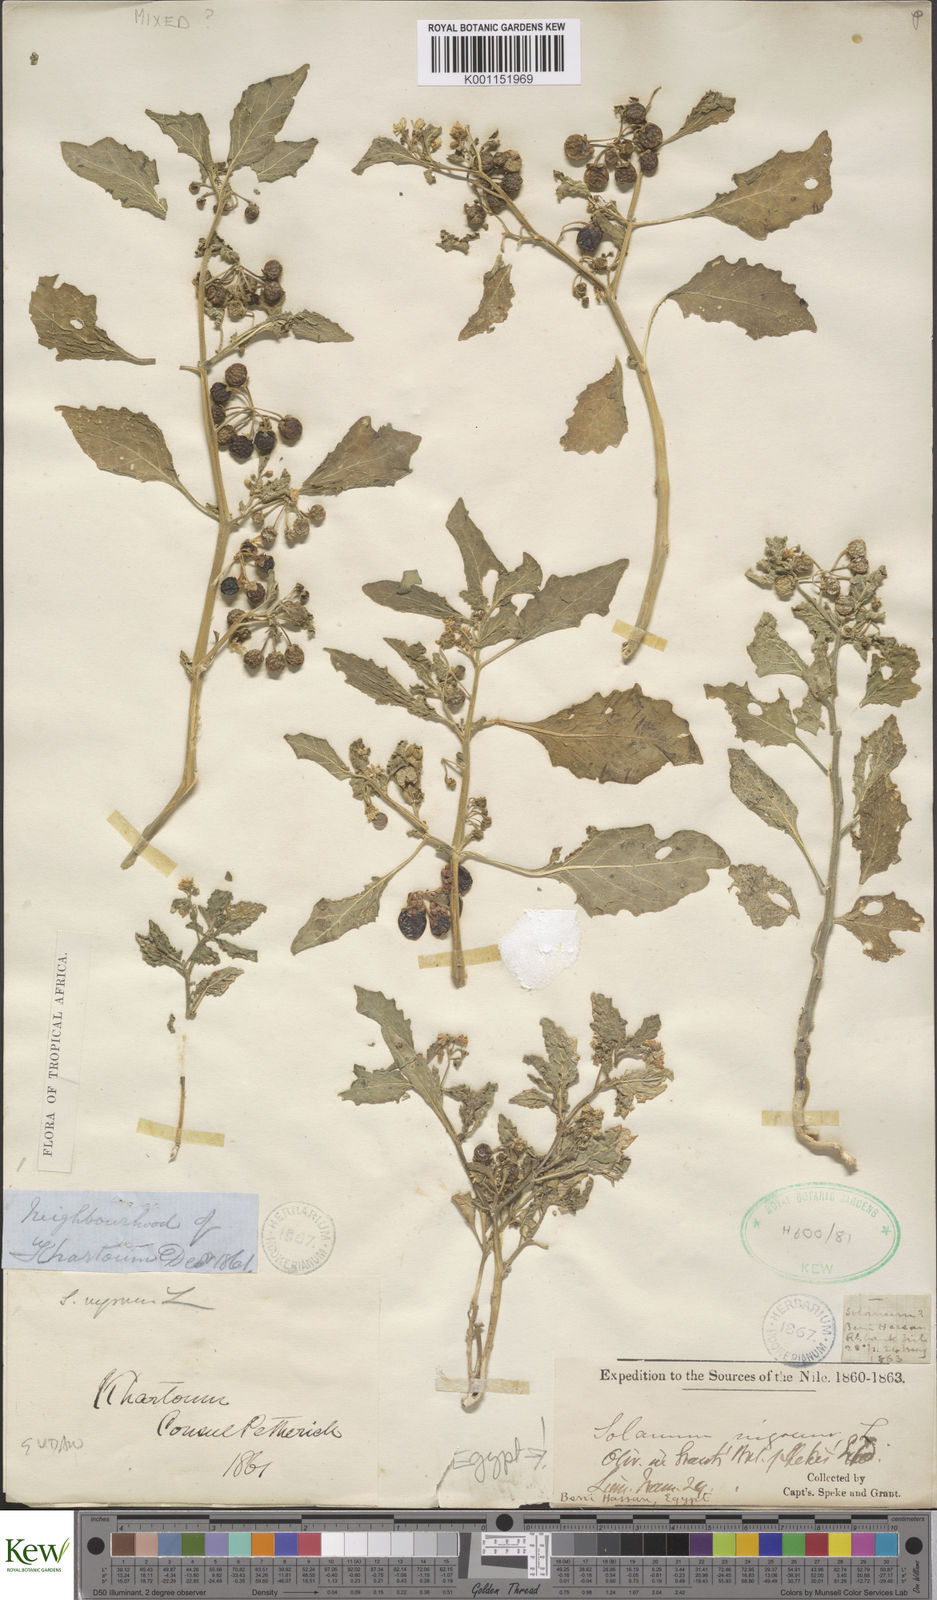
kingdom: Plantae
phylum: Tracheophyta
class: Magnoliopsida
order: Solanales
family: Solanaceae
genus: Solanum
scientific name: Solanum villosum
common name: Red nightshade
